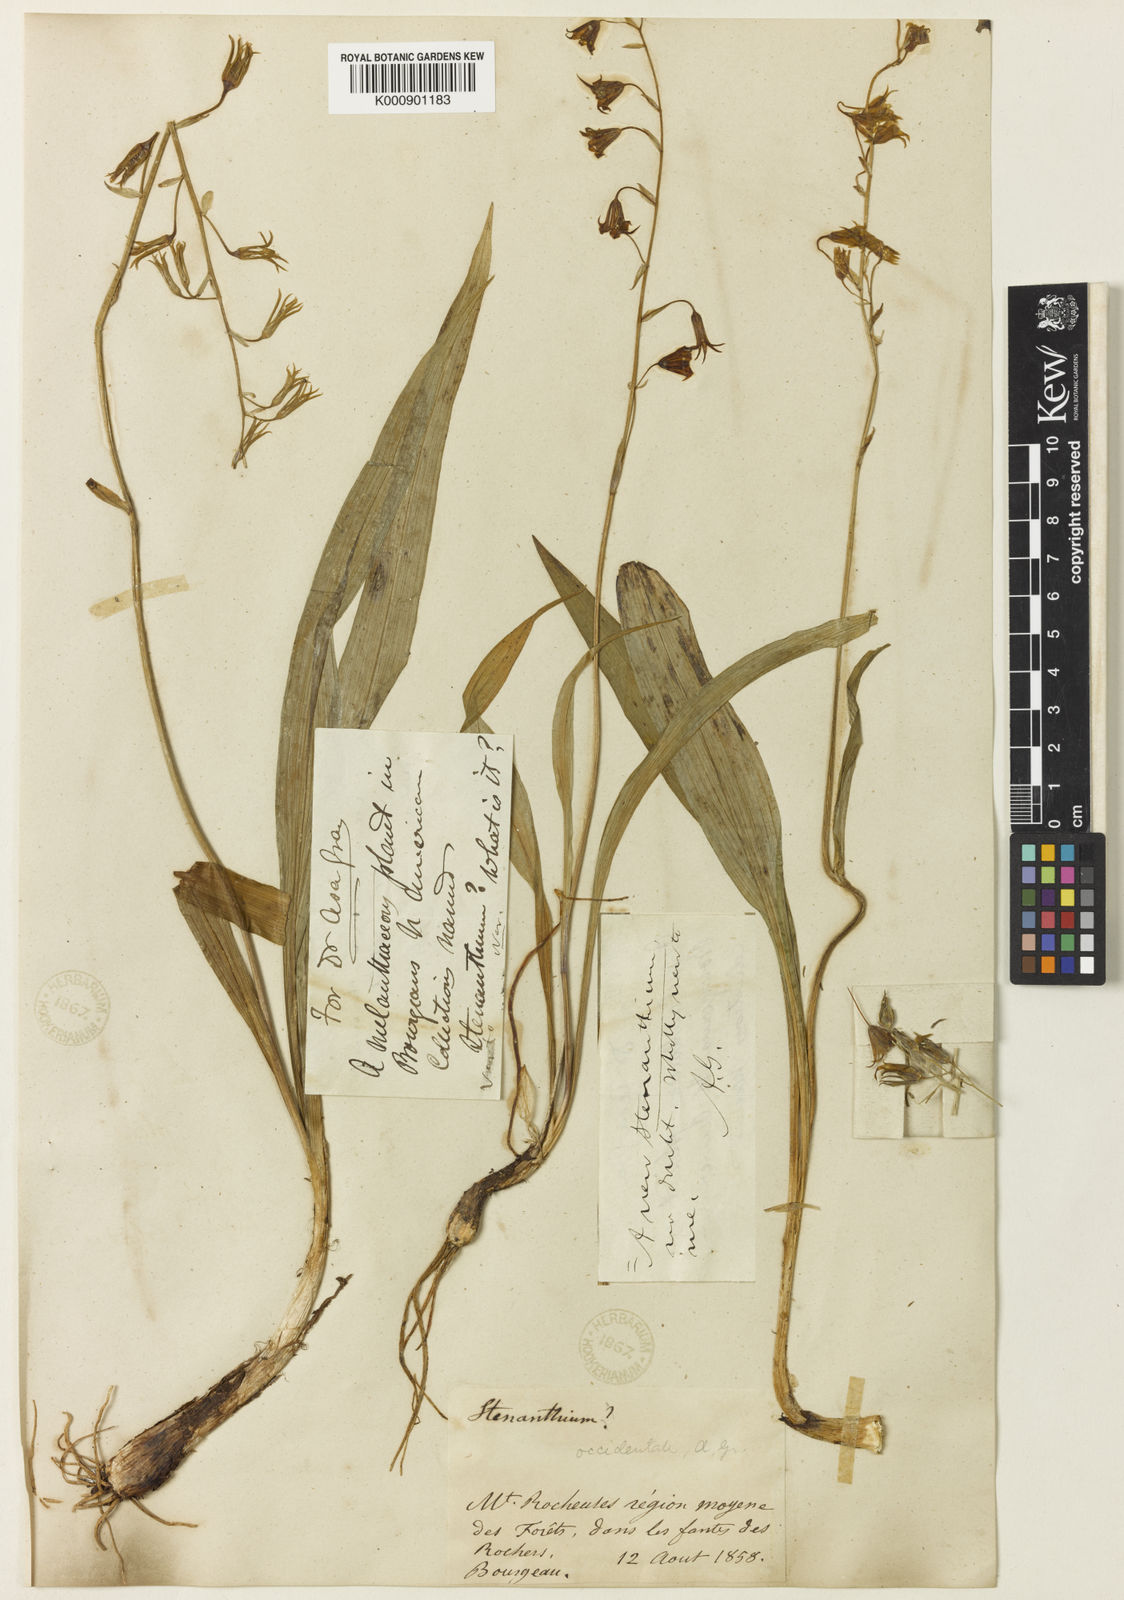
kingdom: Plantae
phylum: Tracheophyta
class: Liliopsida
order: Liliales
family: Melanthiaceae
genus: Anticlea
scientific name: Anticlea occidentalis
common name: Bronze-bells
